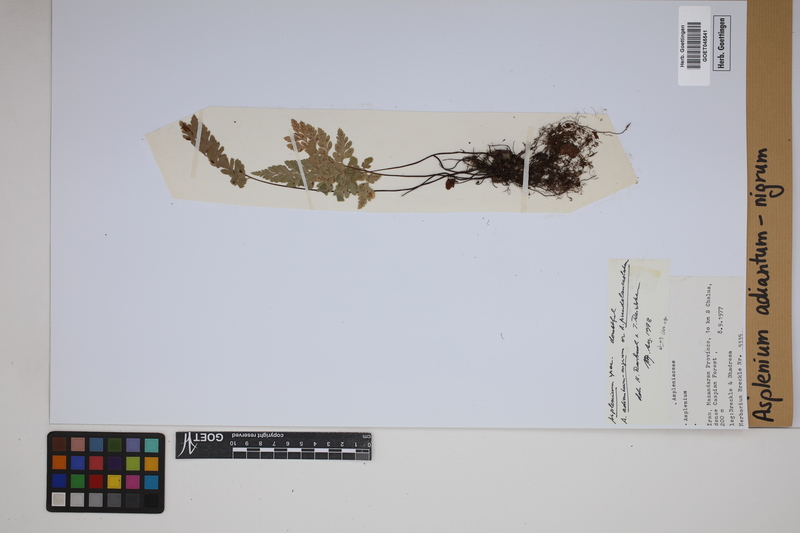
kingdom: Plantae
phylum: Tracheophyta
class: Polypodiopsida
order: Polypodiales
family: Aspleniaceae
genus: Asplenium
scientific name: Asplenium adiantum-nigrum
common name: Black spleenwort
